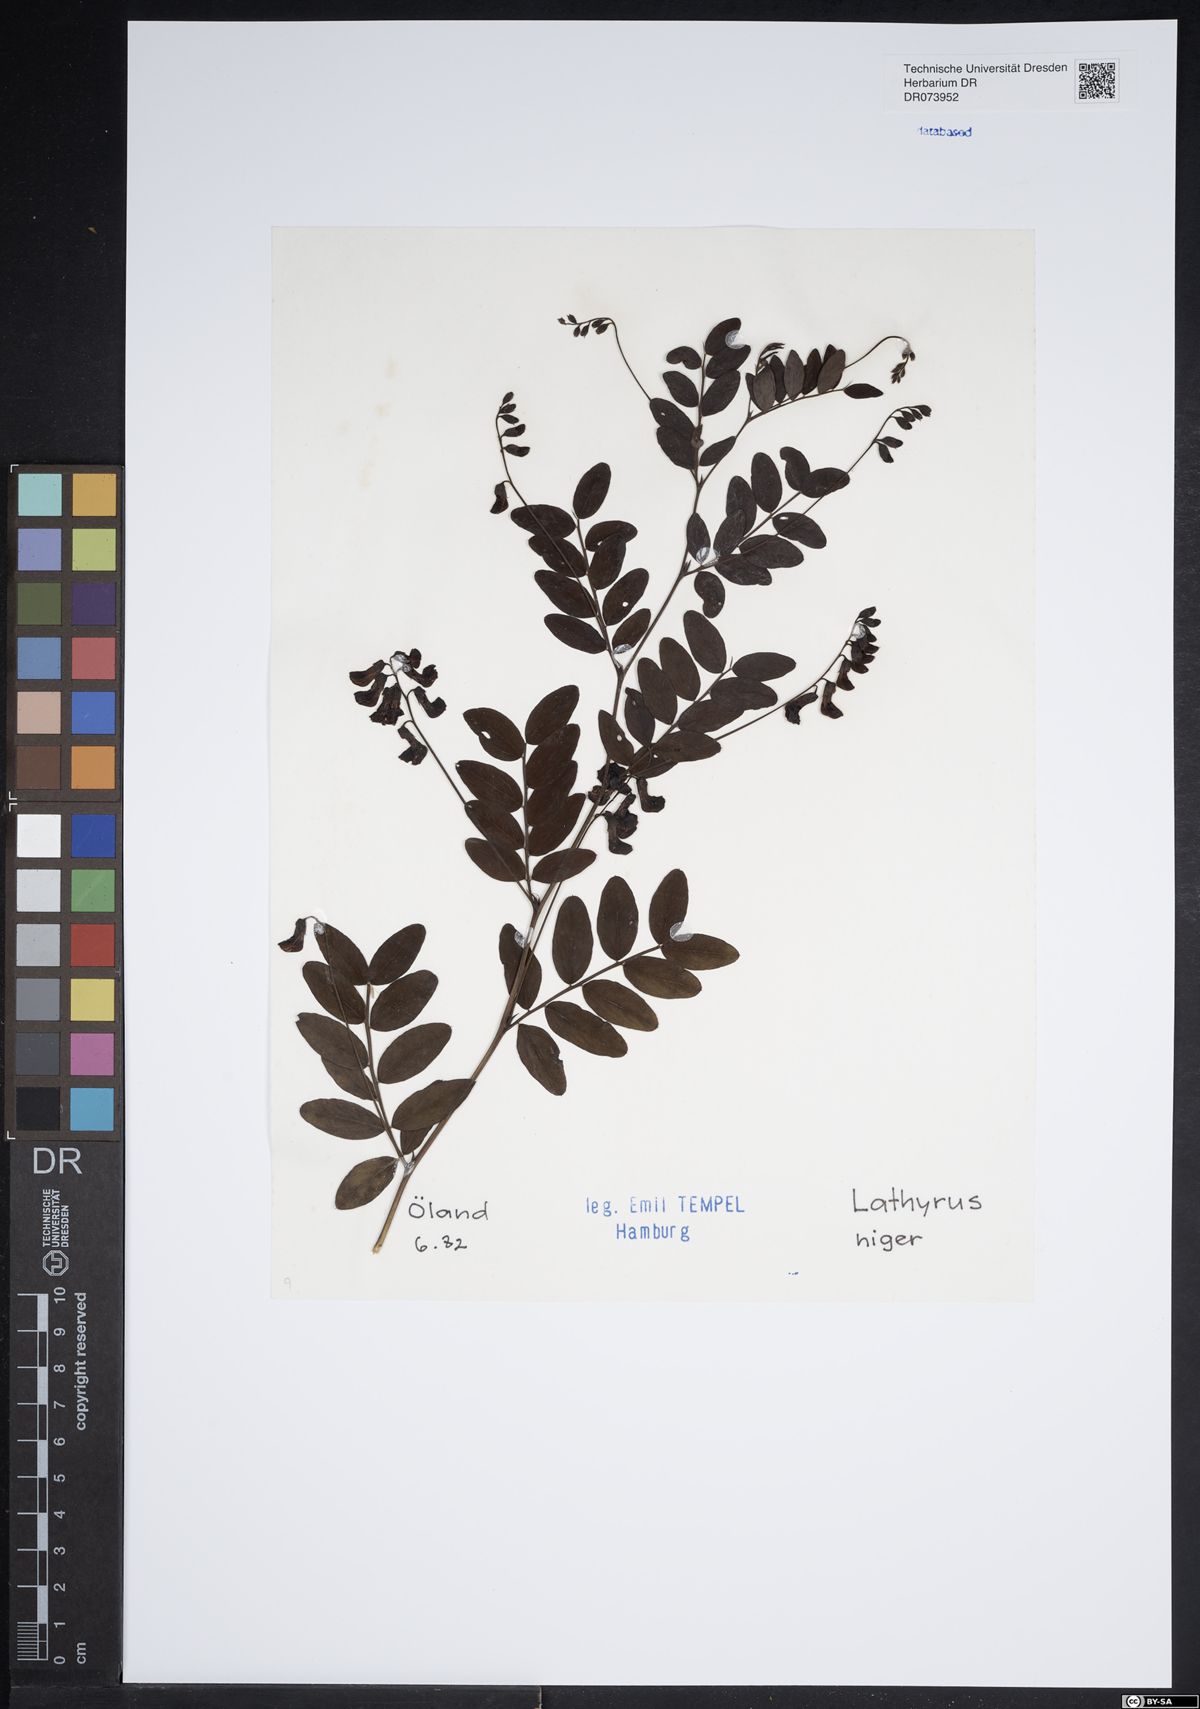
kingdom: Plantae
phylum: Tracheophyta
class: Magnoliopsida
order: Fabales
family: Fabaceae
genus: Lathyrus
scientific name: Lathyrus niger
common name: Black pea
